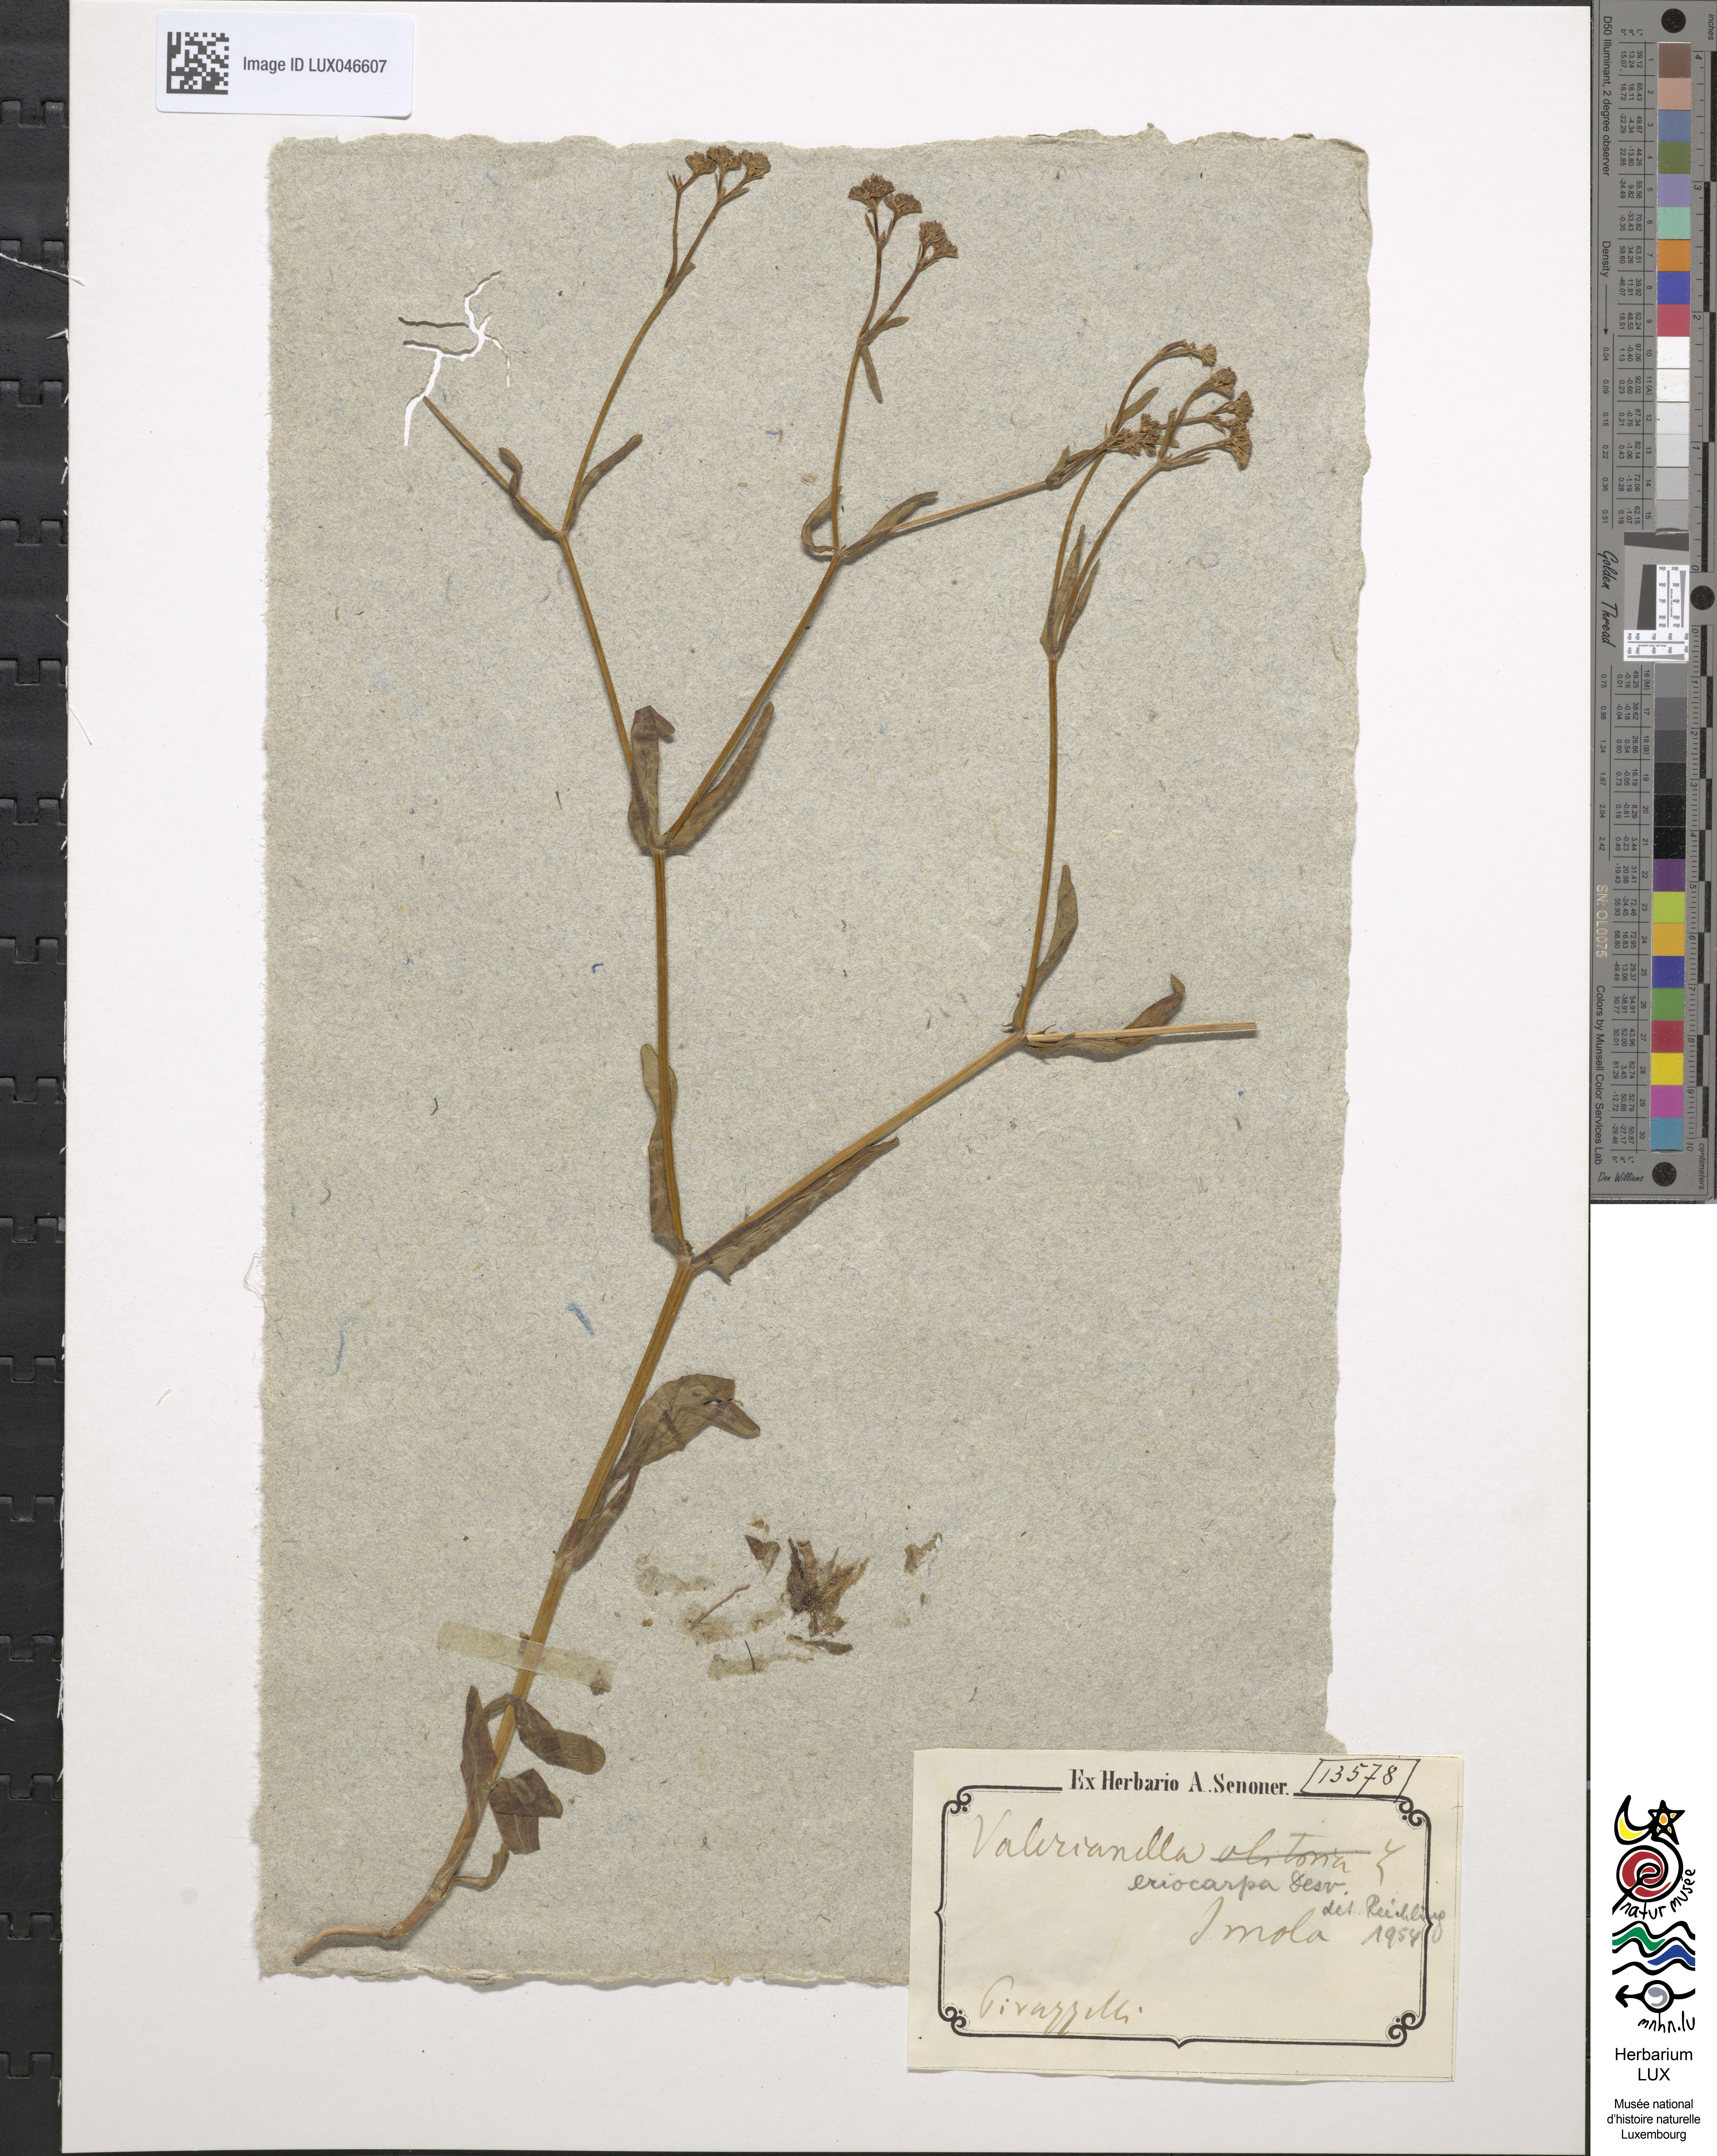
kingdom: Plantae
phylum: Tracheophyta
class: Magnoliopsida
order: Dipsacales
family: Caprifoliaceae
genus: Valerianella
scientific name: Valerianella eriocarpa
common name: Hairy-fruited cornsalad
